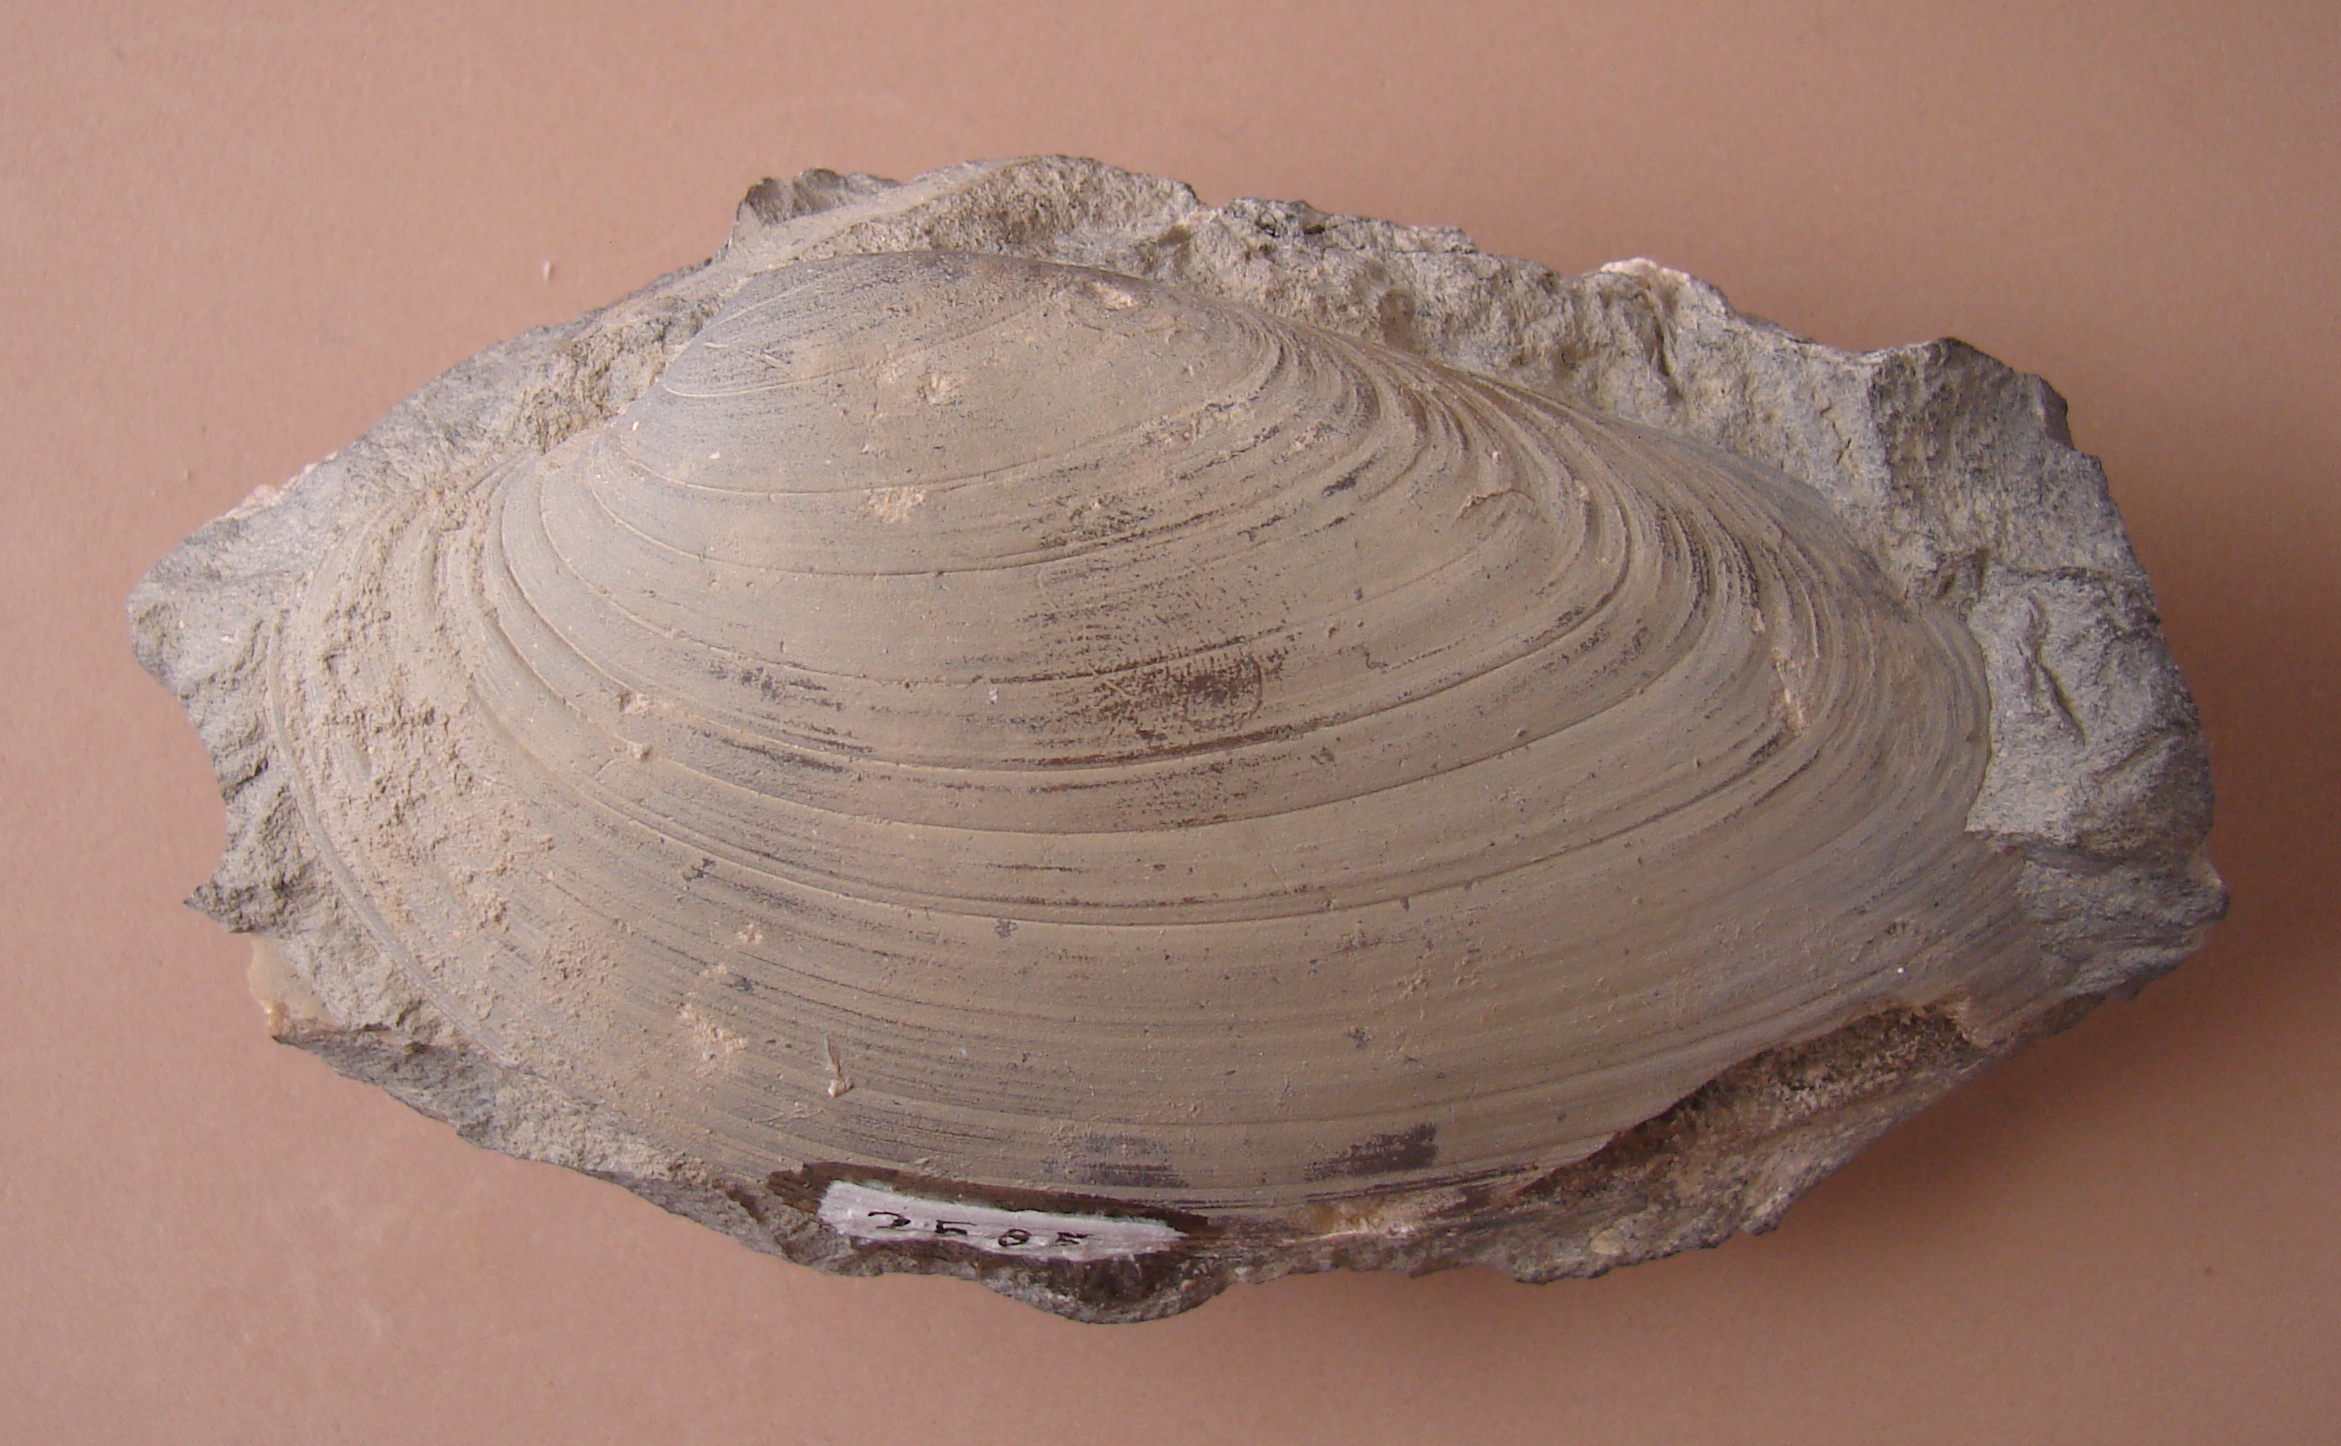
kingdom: Animalia
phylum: Mollusca
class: Bivalvia
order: Carditida
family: Cardiniidae
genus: Cardinia
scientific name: Cardinia
